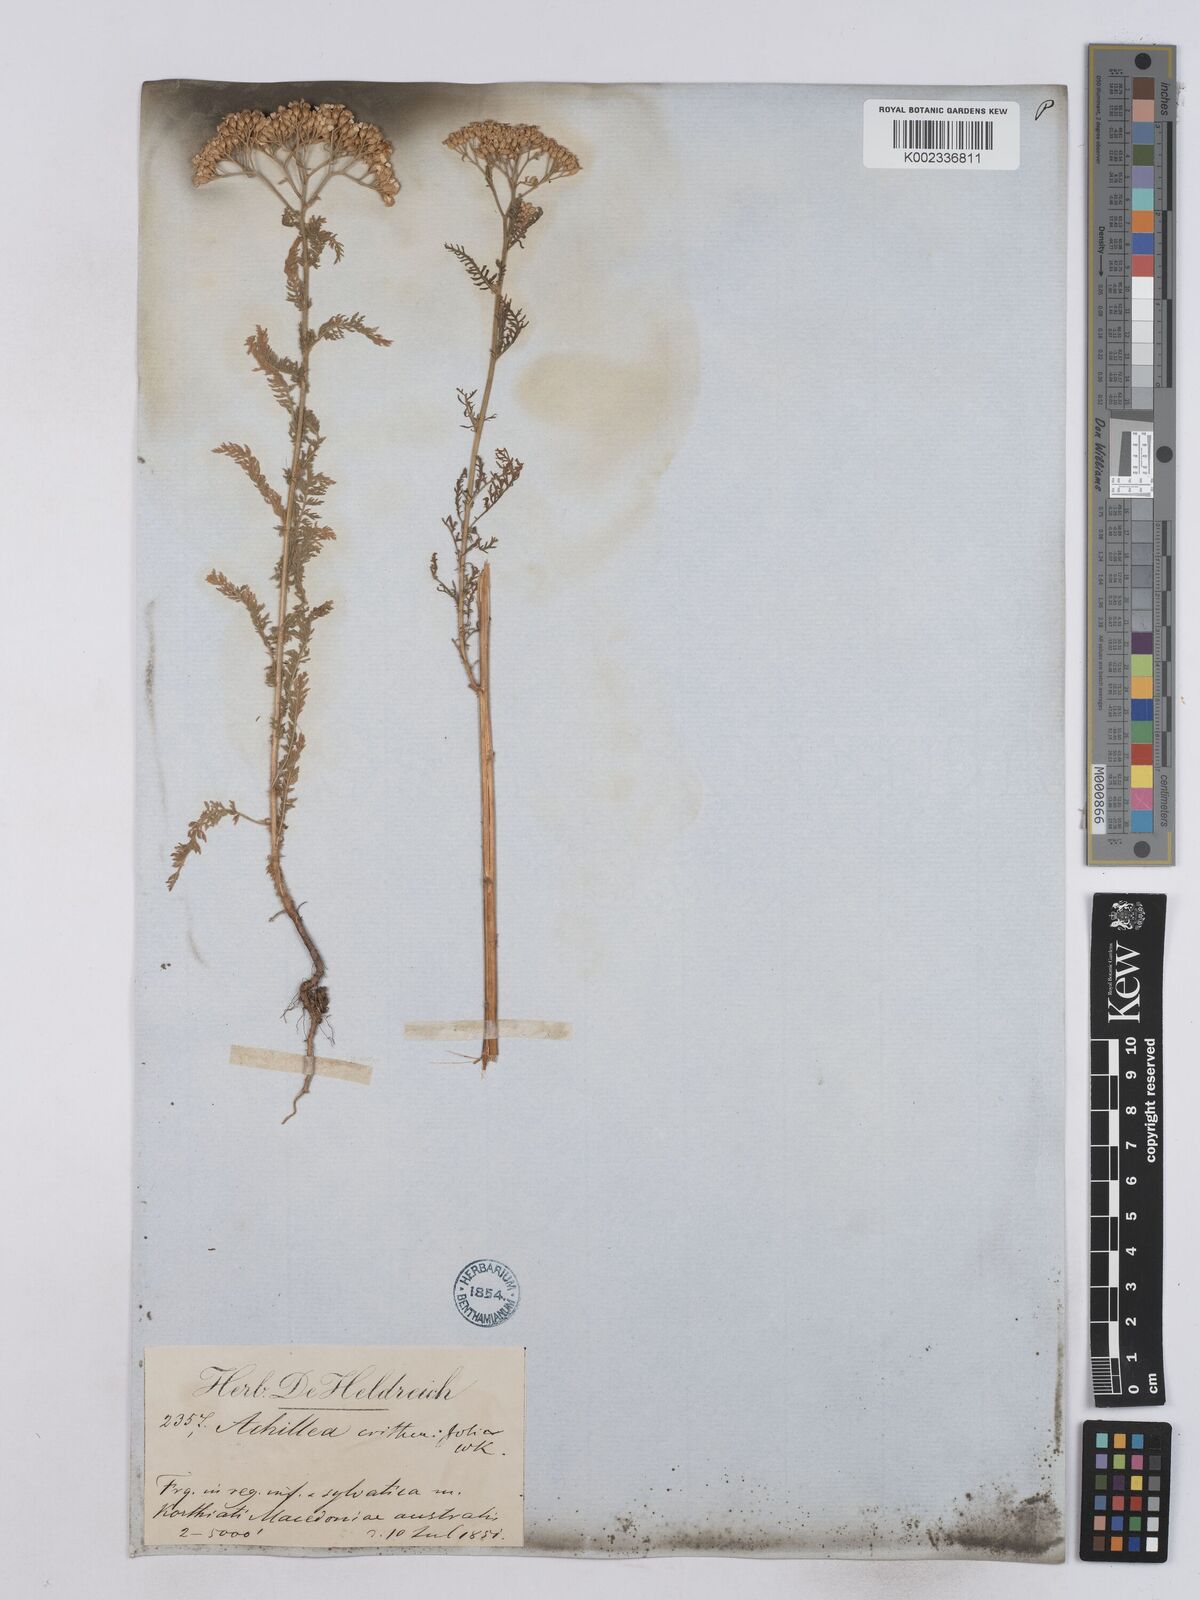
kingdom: Plantae
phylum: Tracheophyta
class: Magnoliopsida
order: Asterales
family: Asteraceae
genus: Achillea
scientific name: Achillea crithmifolia
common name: Yarrow
